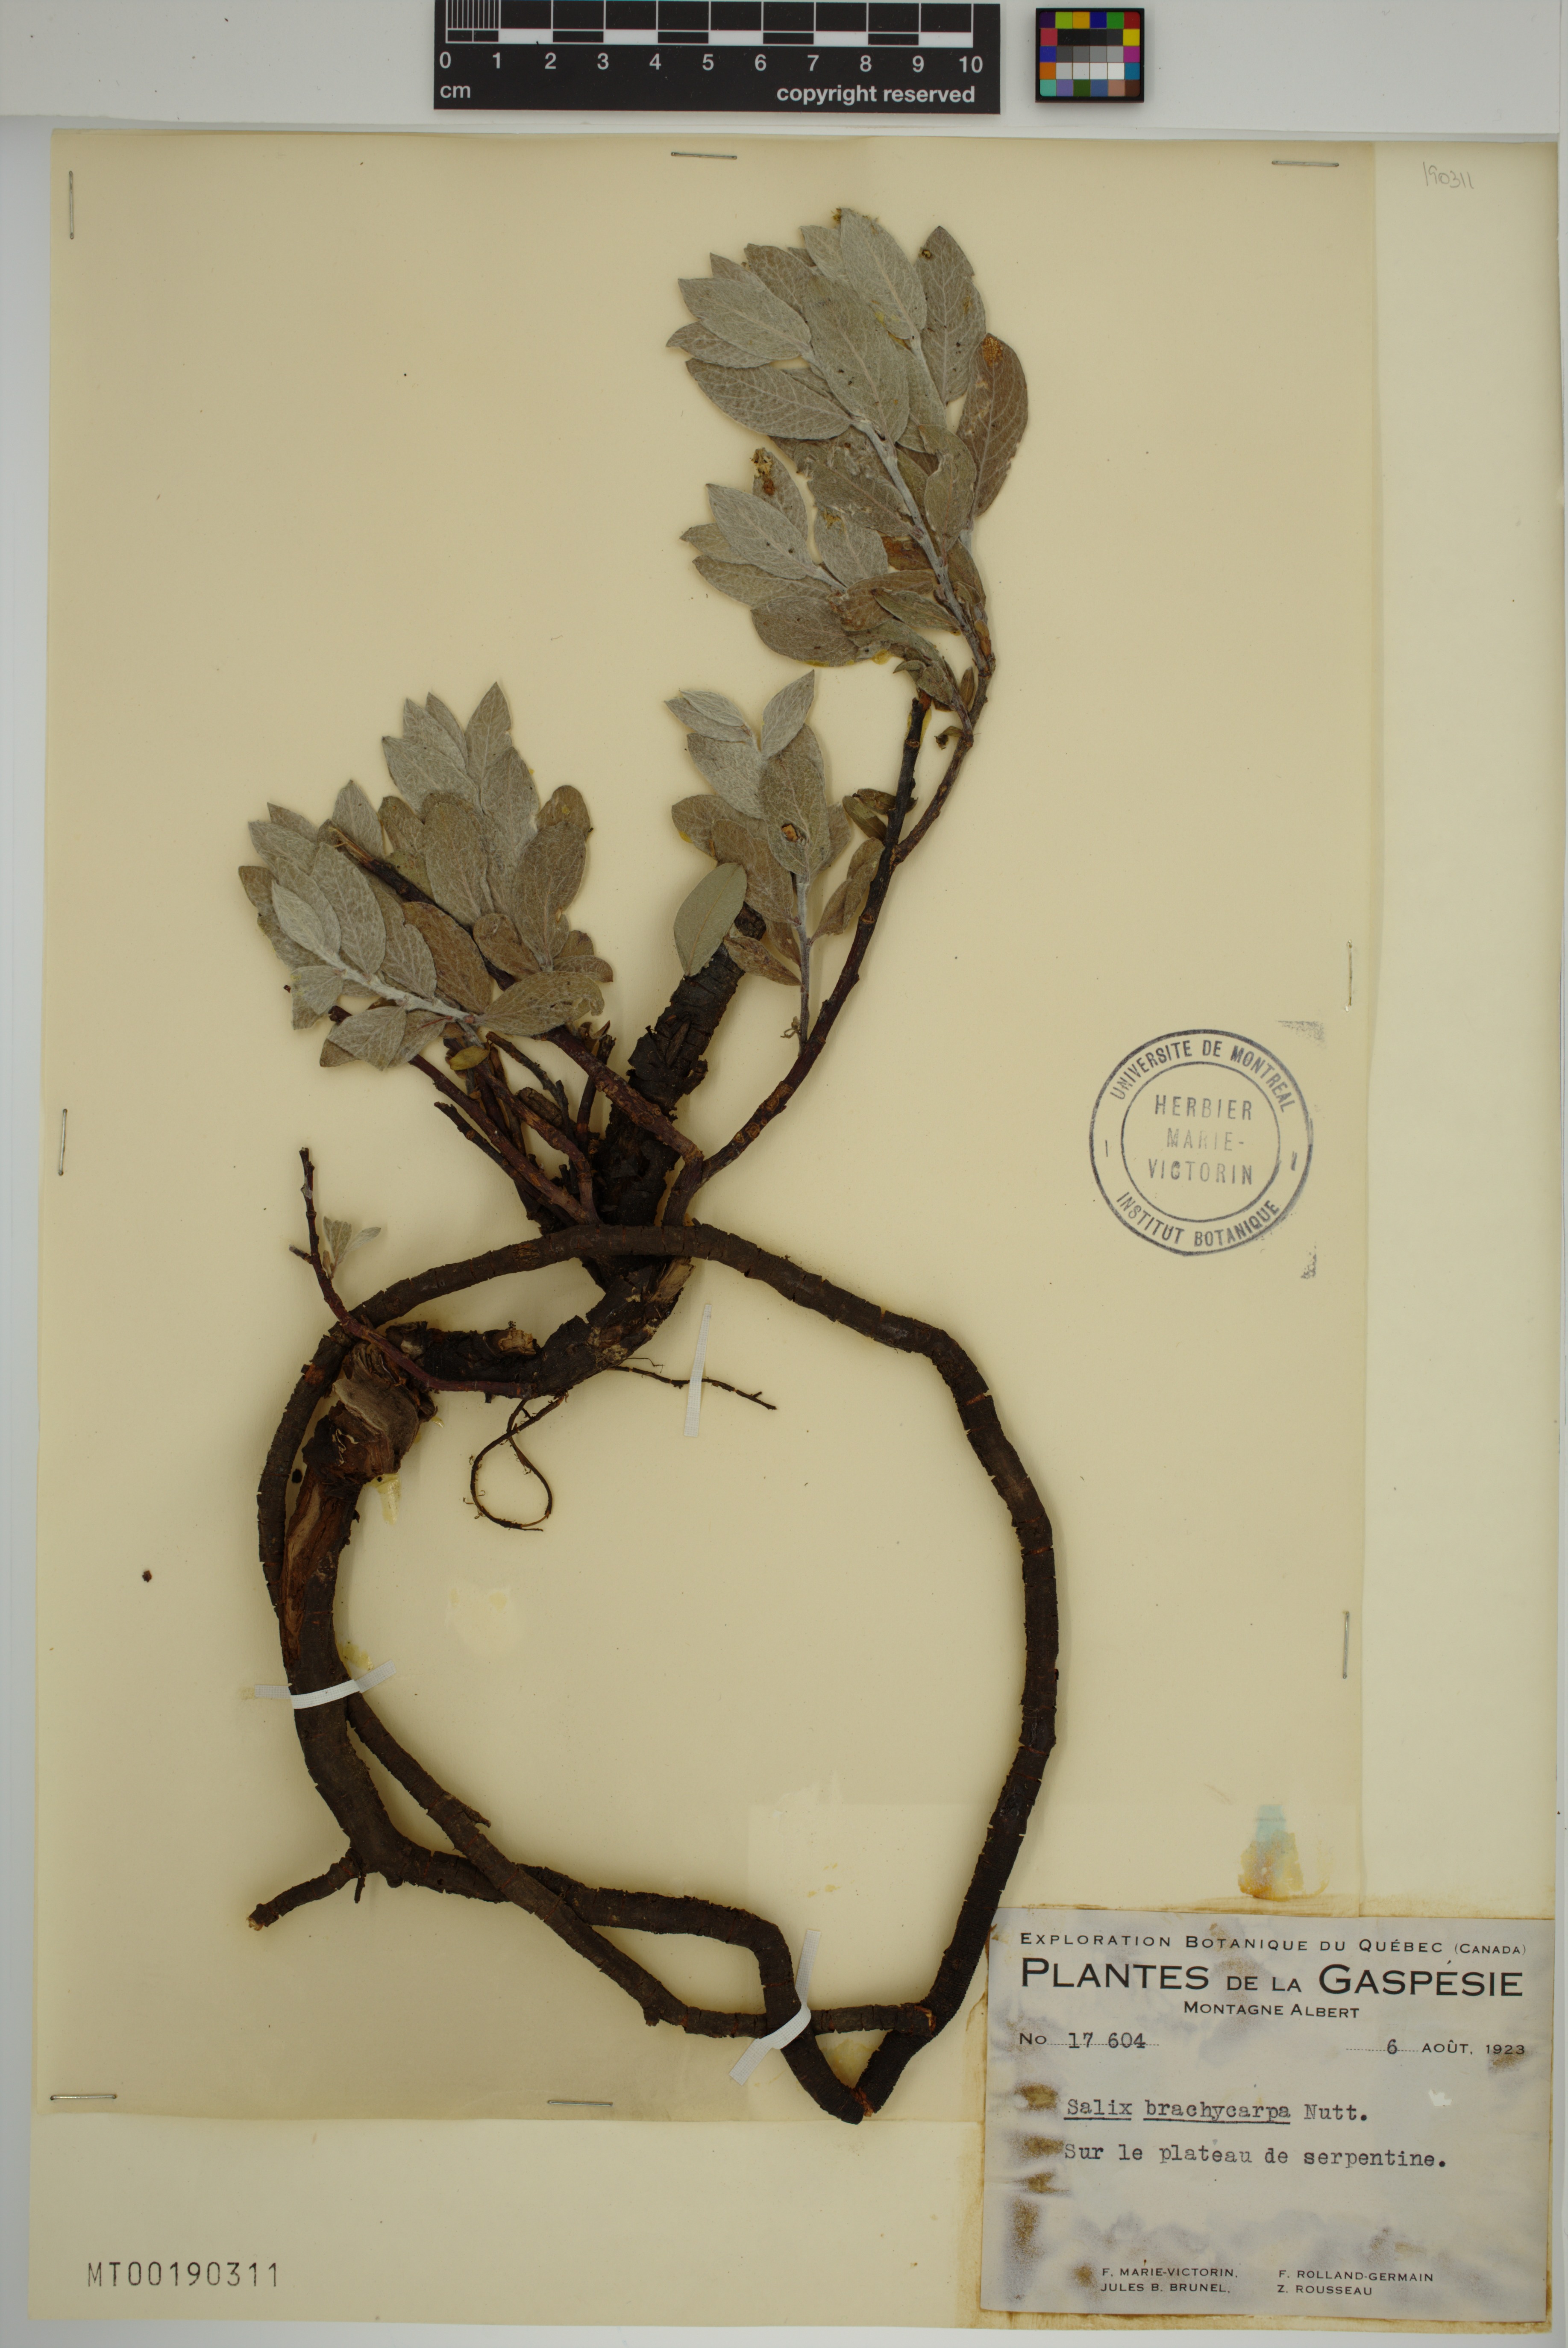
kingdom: Plantae
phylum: Tracheophyta
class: Magnoliopsida
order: Malpighiales
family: Salicaceae
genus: Salix
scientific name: Salix brachycarpa
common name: Barren-ground willow
